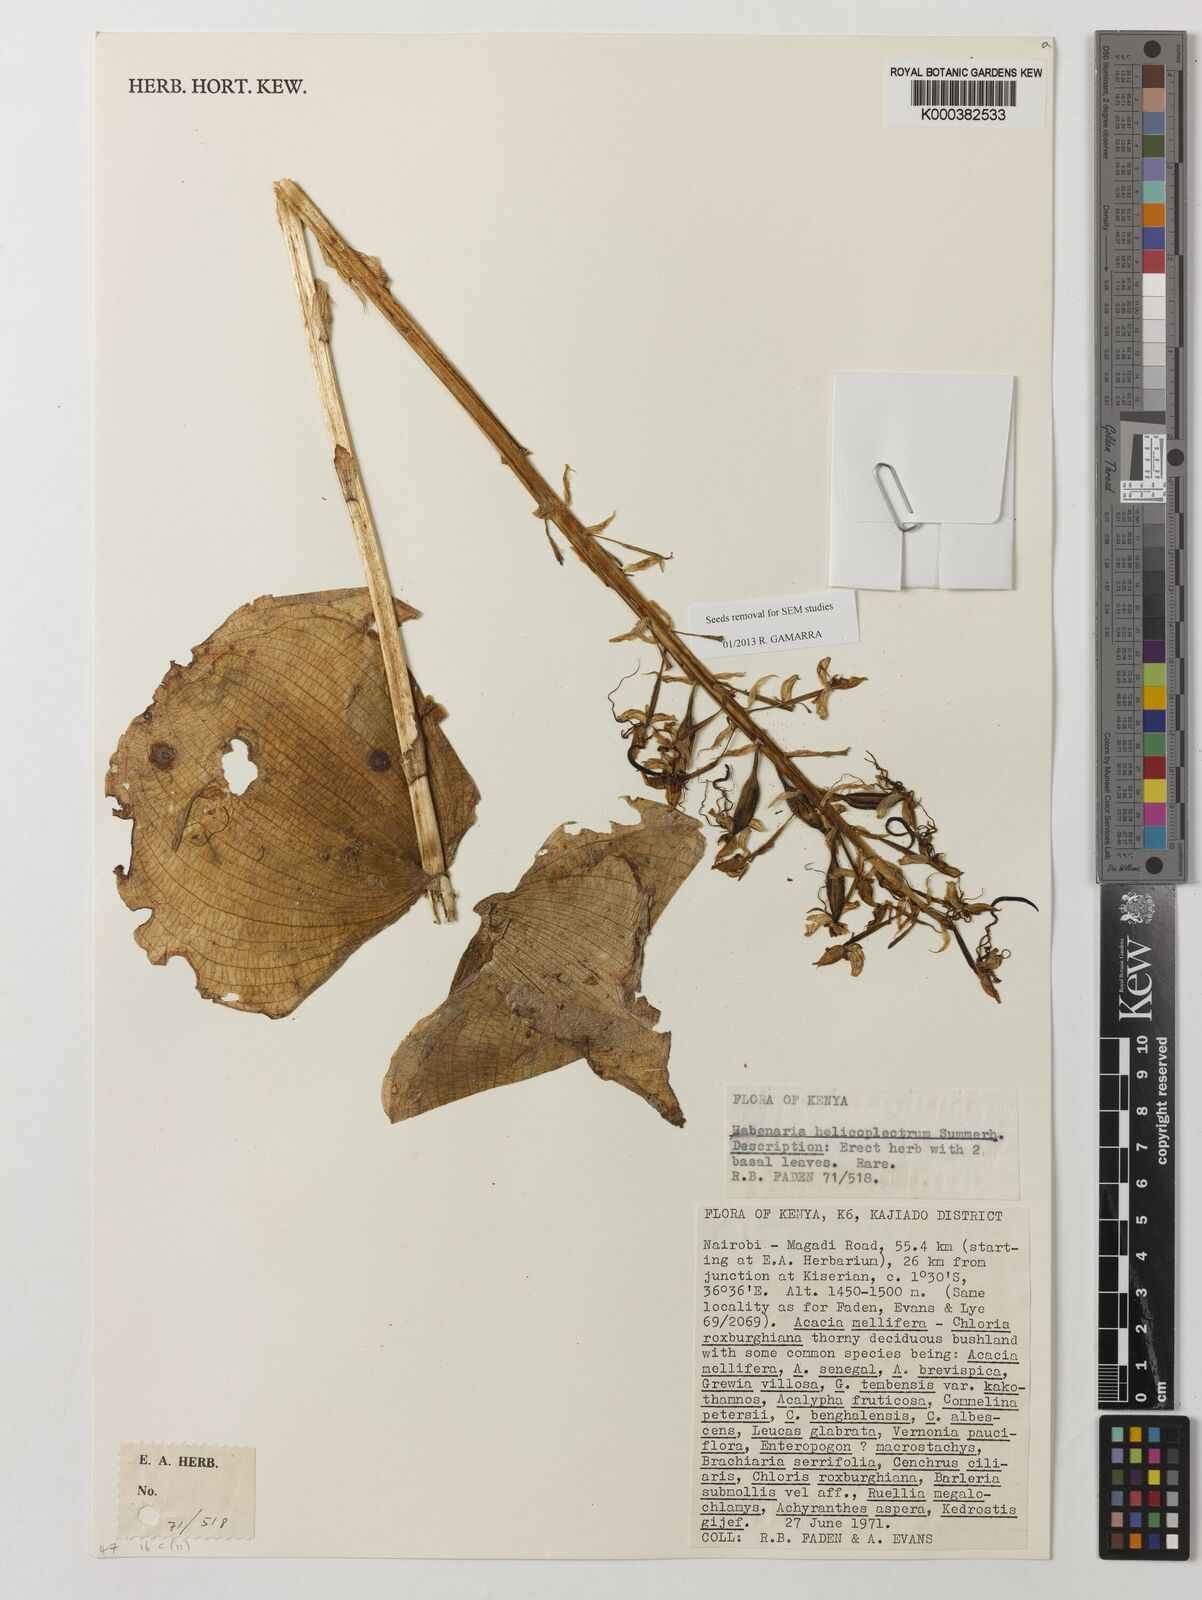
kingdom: Plantae
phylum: Tracheophyta
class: Liliopsida
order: Asparagales
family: Orchidaceae
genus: Habenaria
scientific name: Habenaria helicoplectrum
